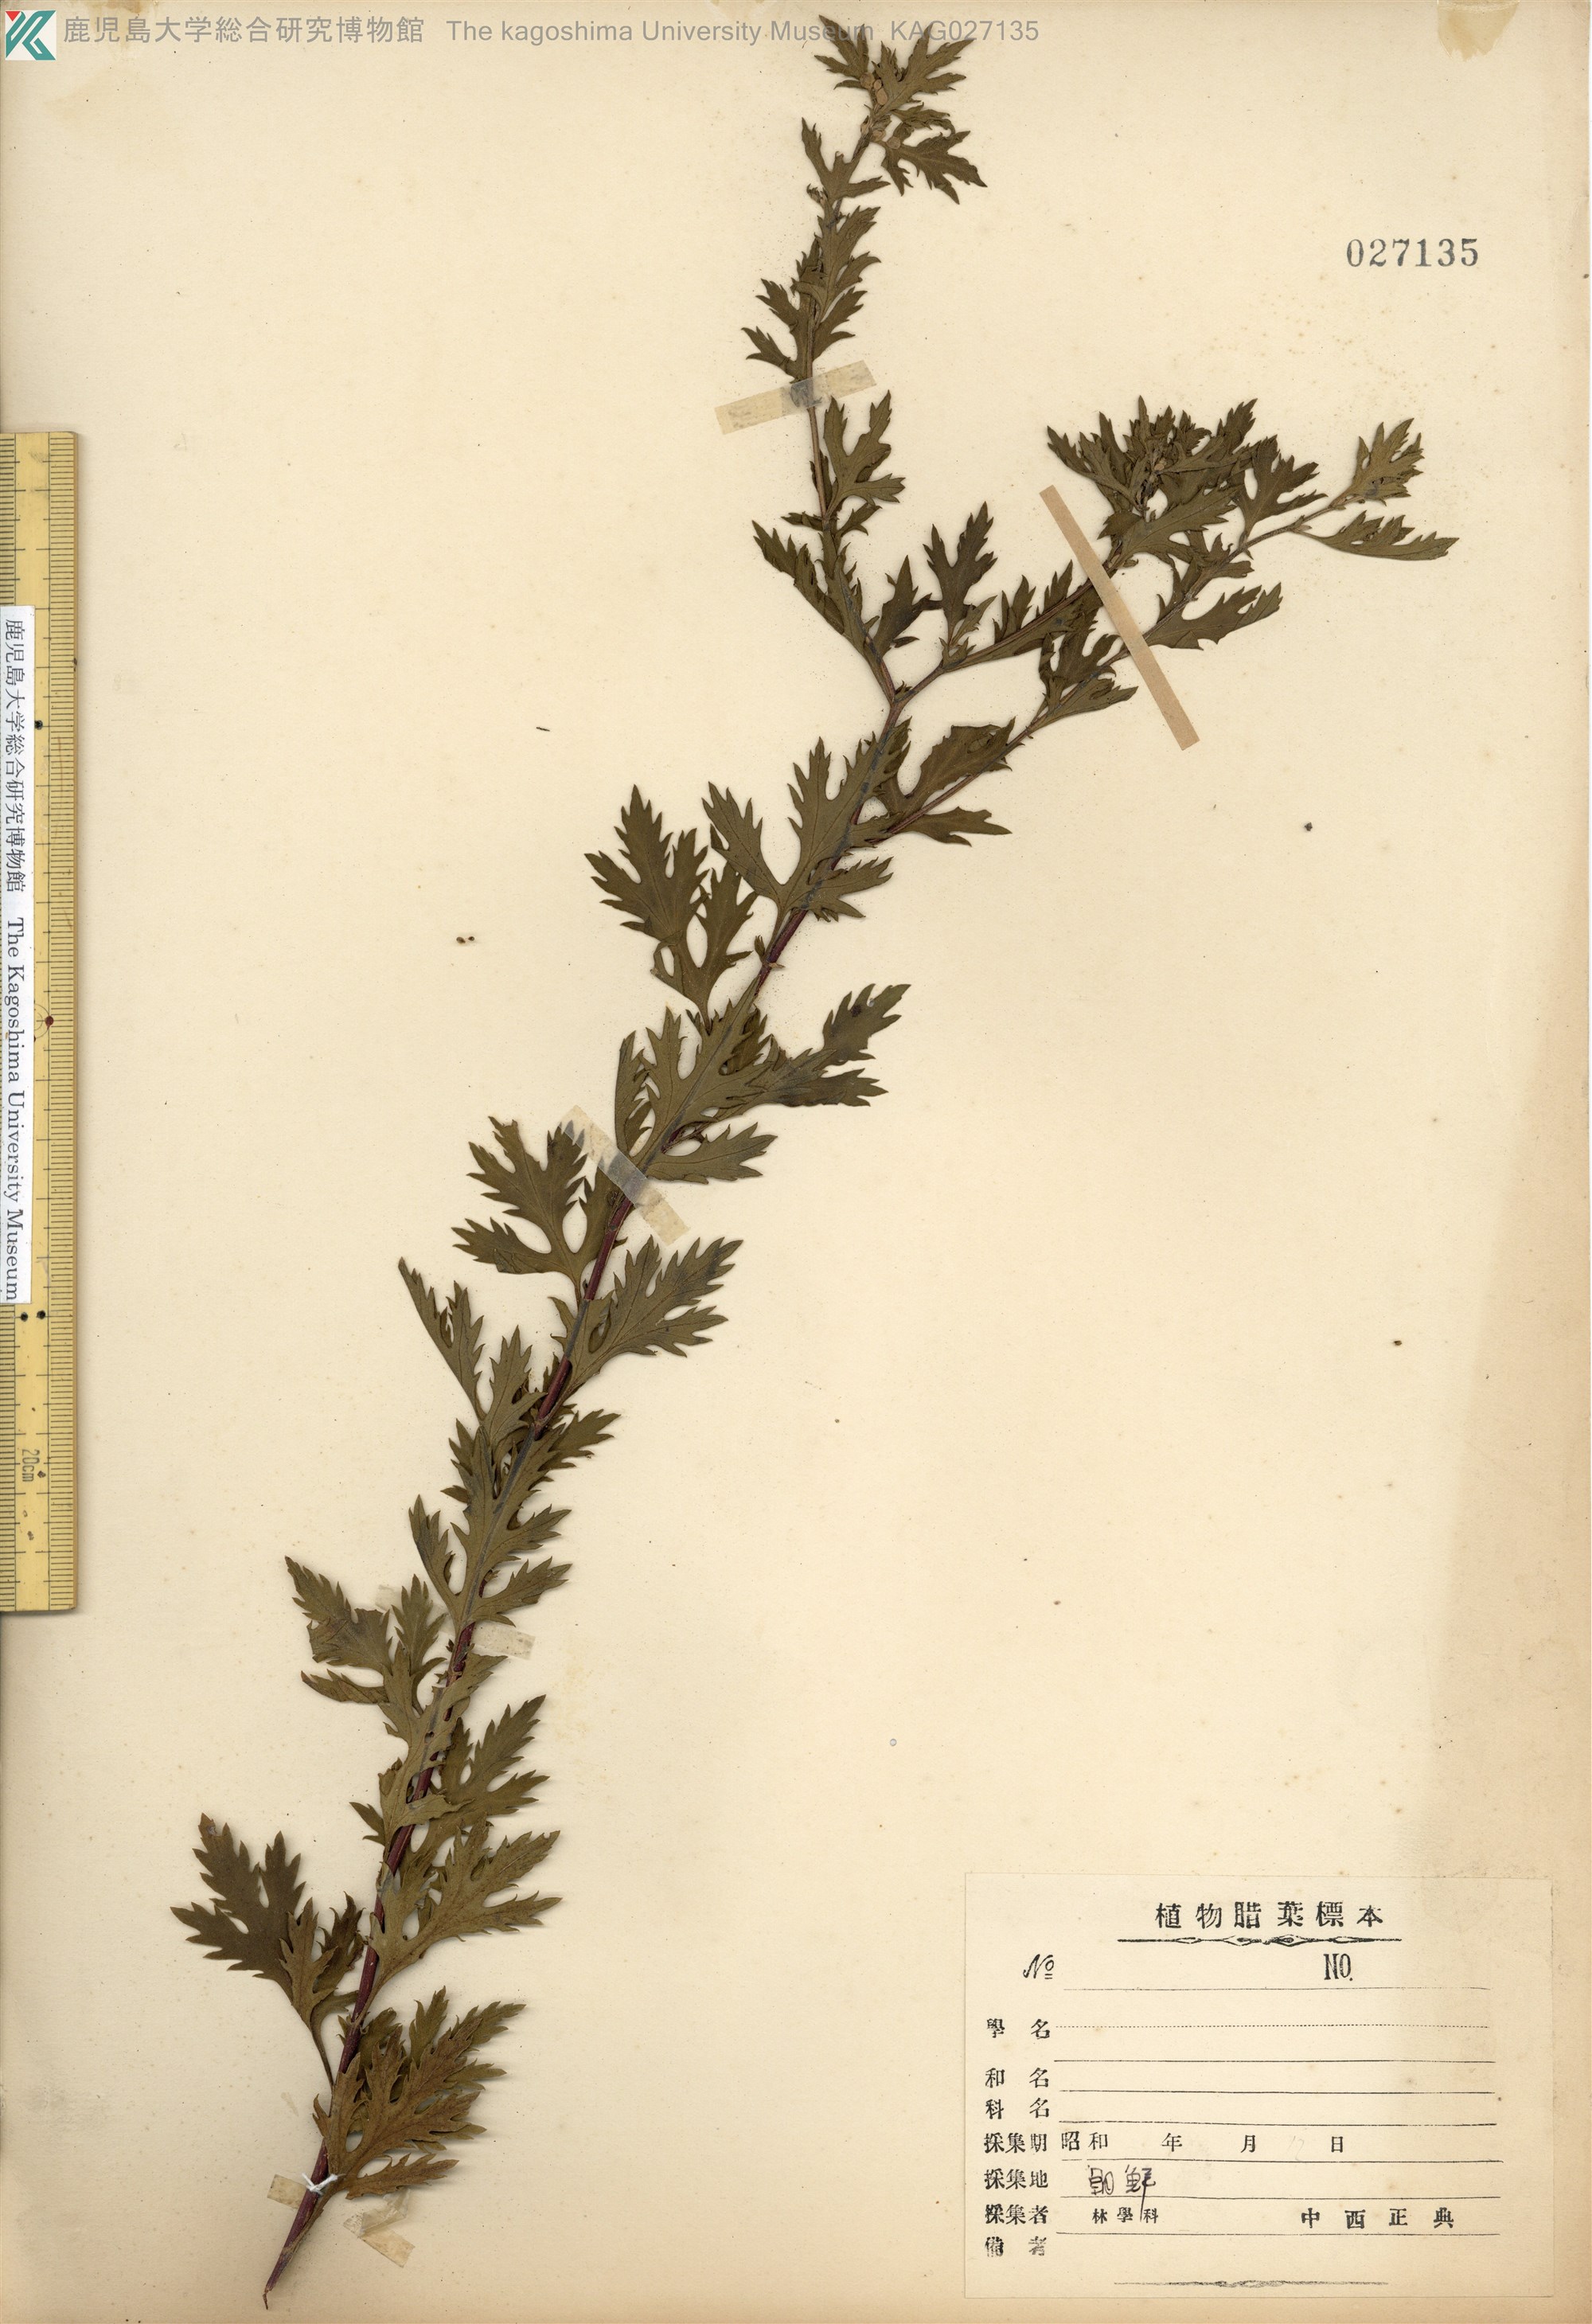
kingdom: Plantae
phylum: Tracheophyta
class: Magnoliopsida
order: Asterales
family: Asteraceae
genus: Artemisia
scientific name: Artemisia sacrorum
